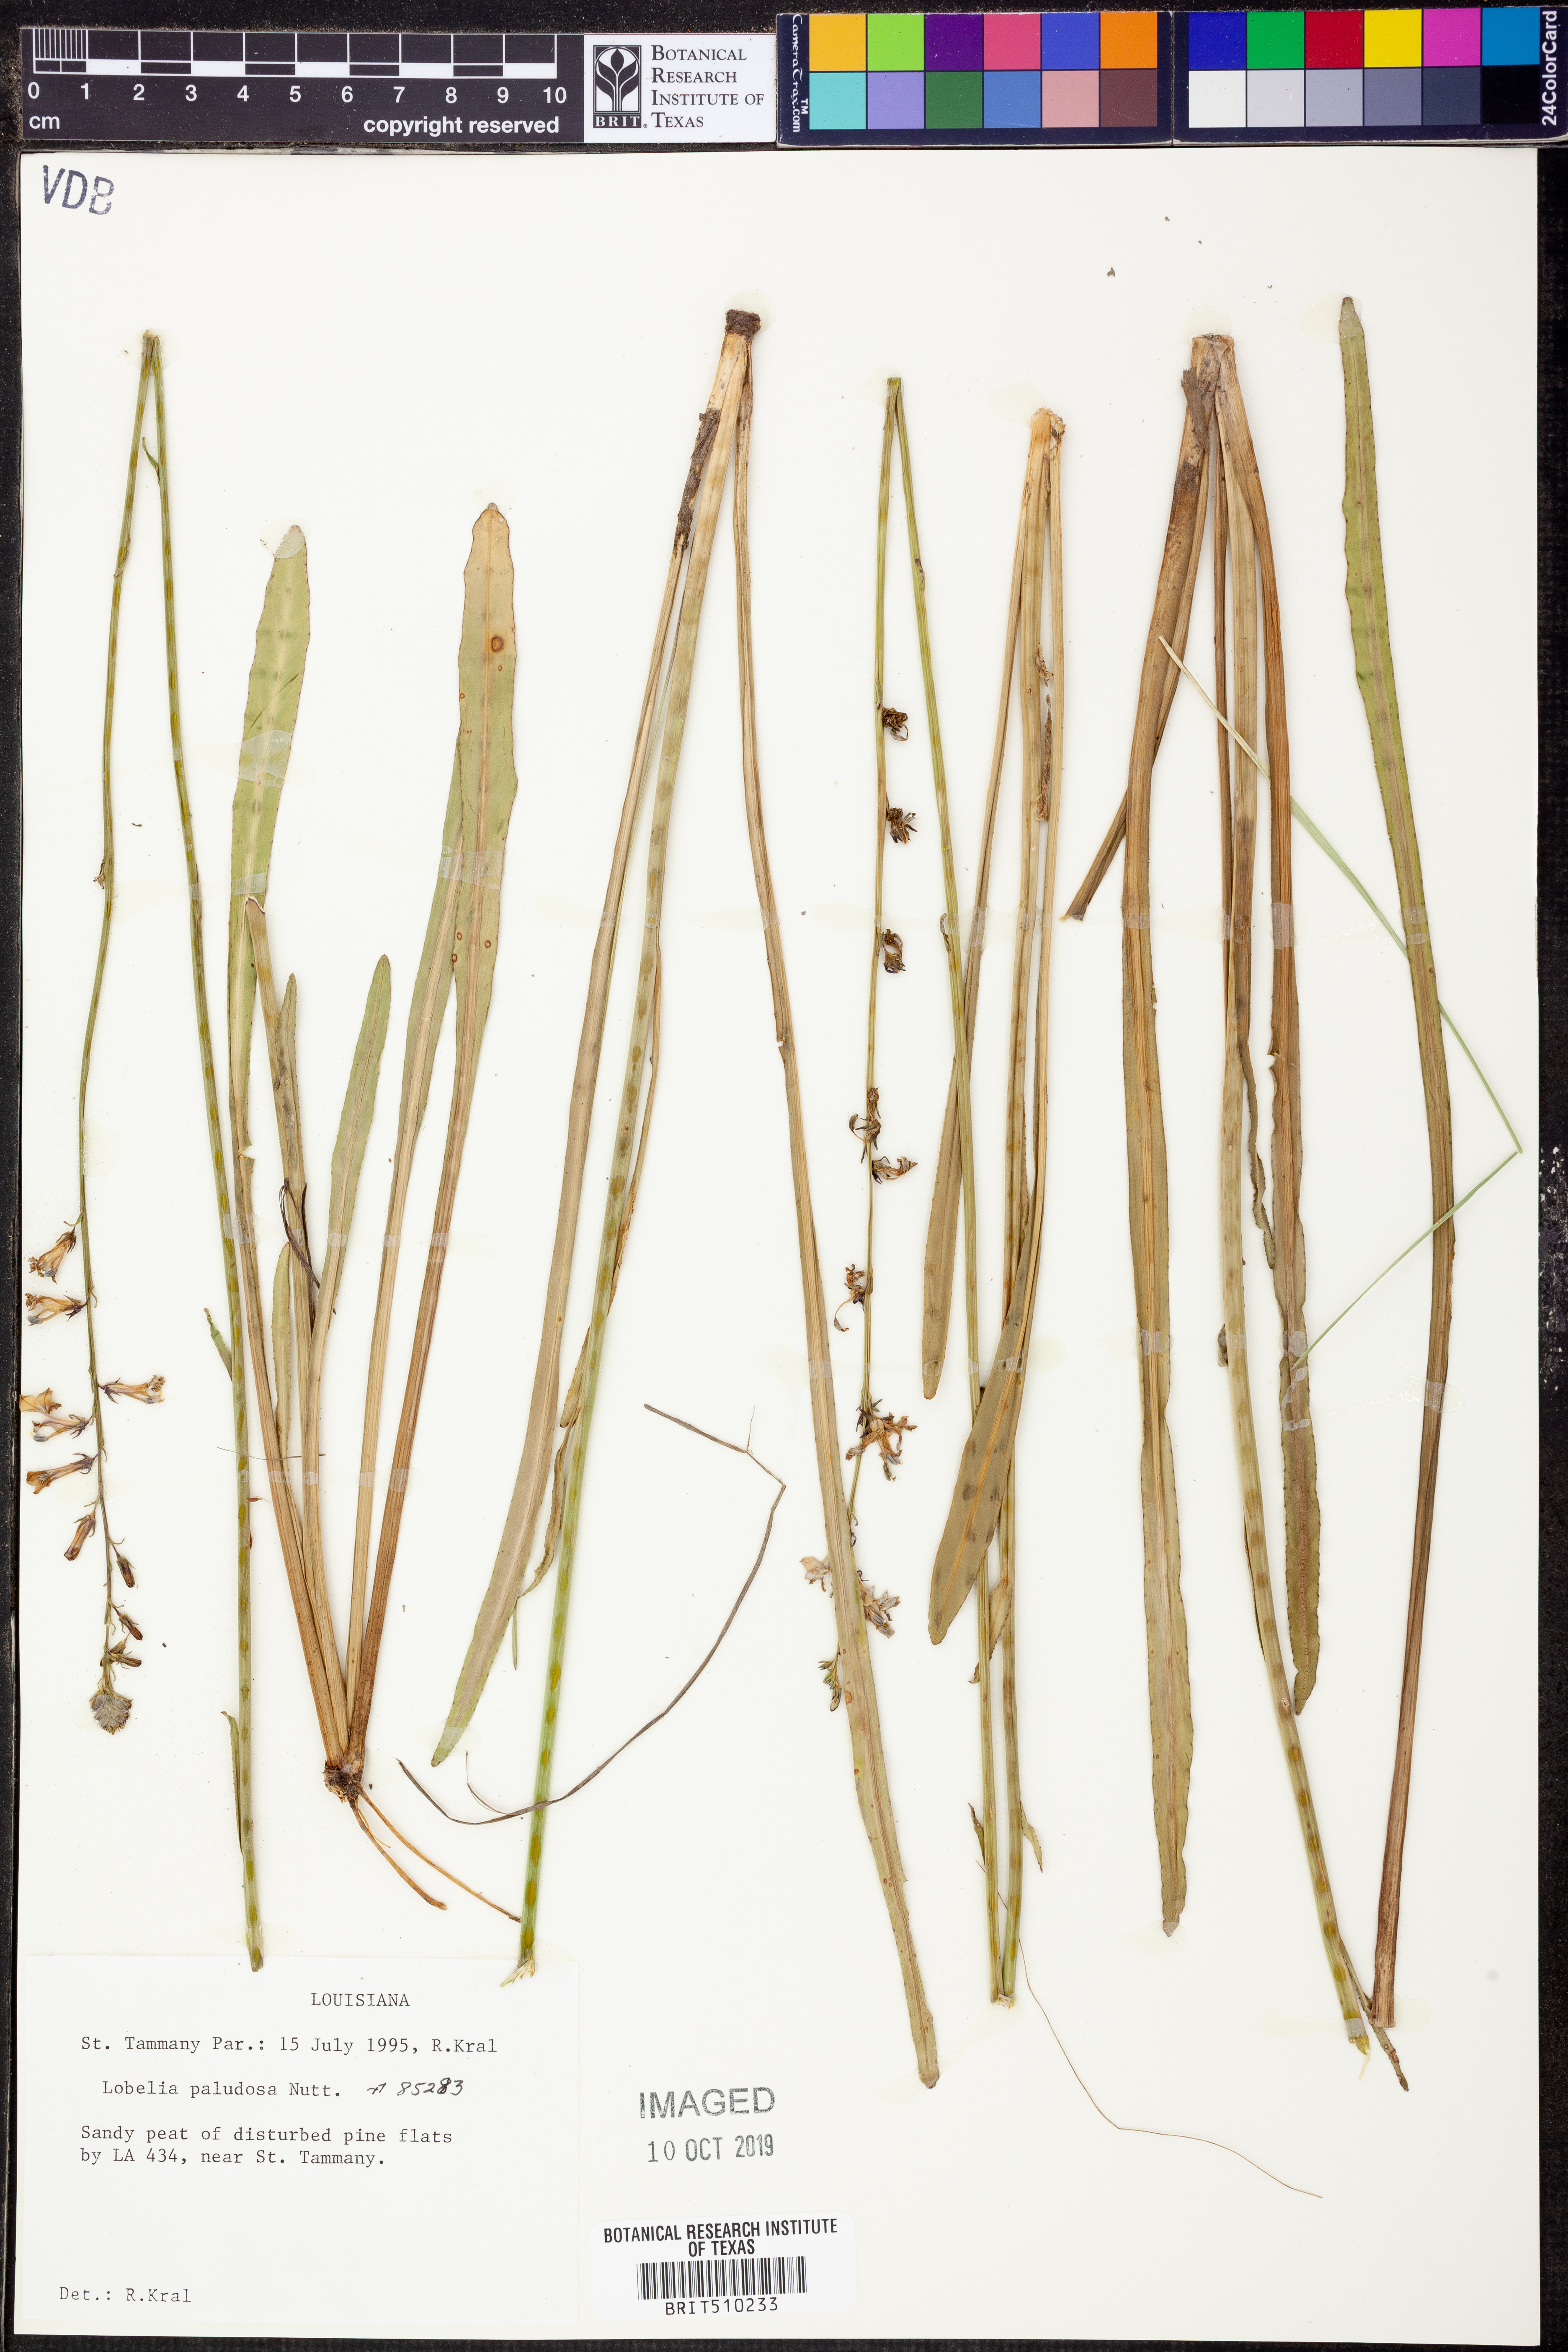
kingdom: Plantae
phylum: Tracheophyta
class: Magnoliopsida
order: Asterales
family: Campanulaceae
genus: Lobelia
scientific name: Lobelia paludosa
